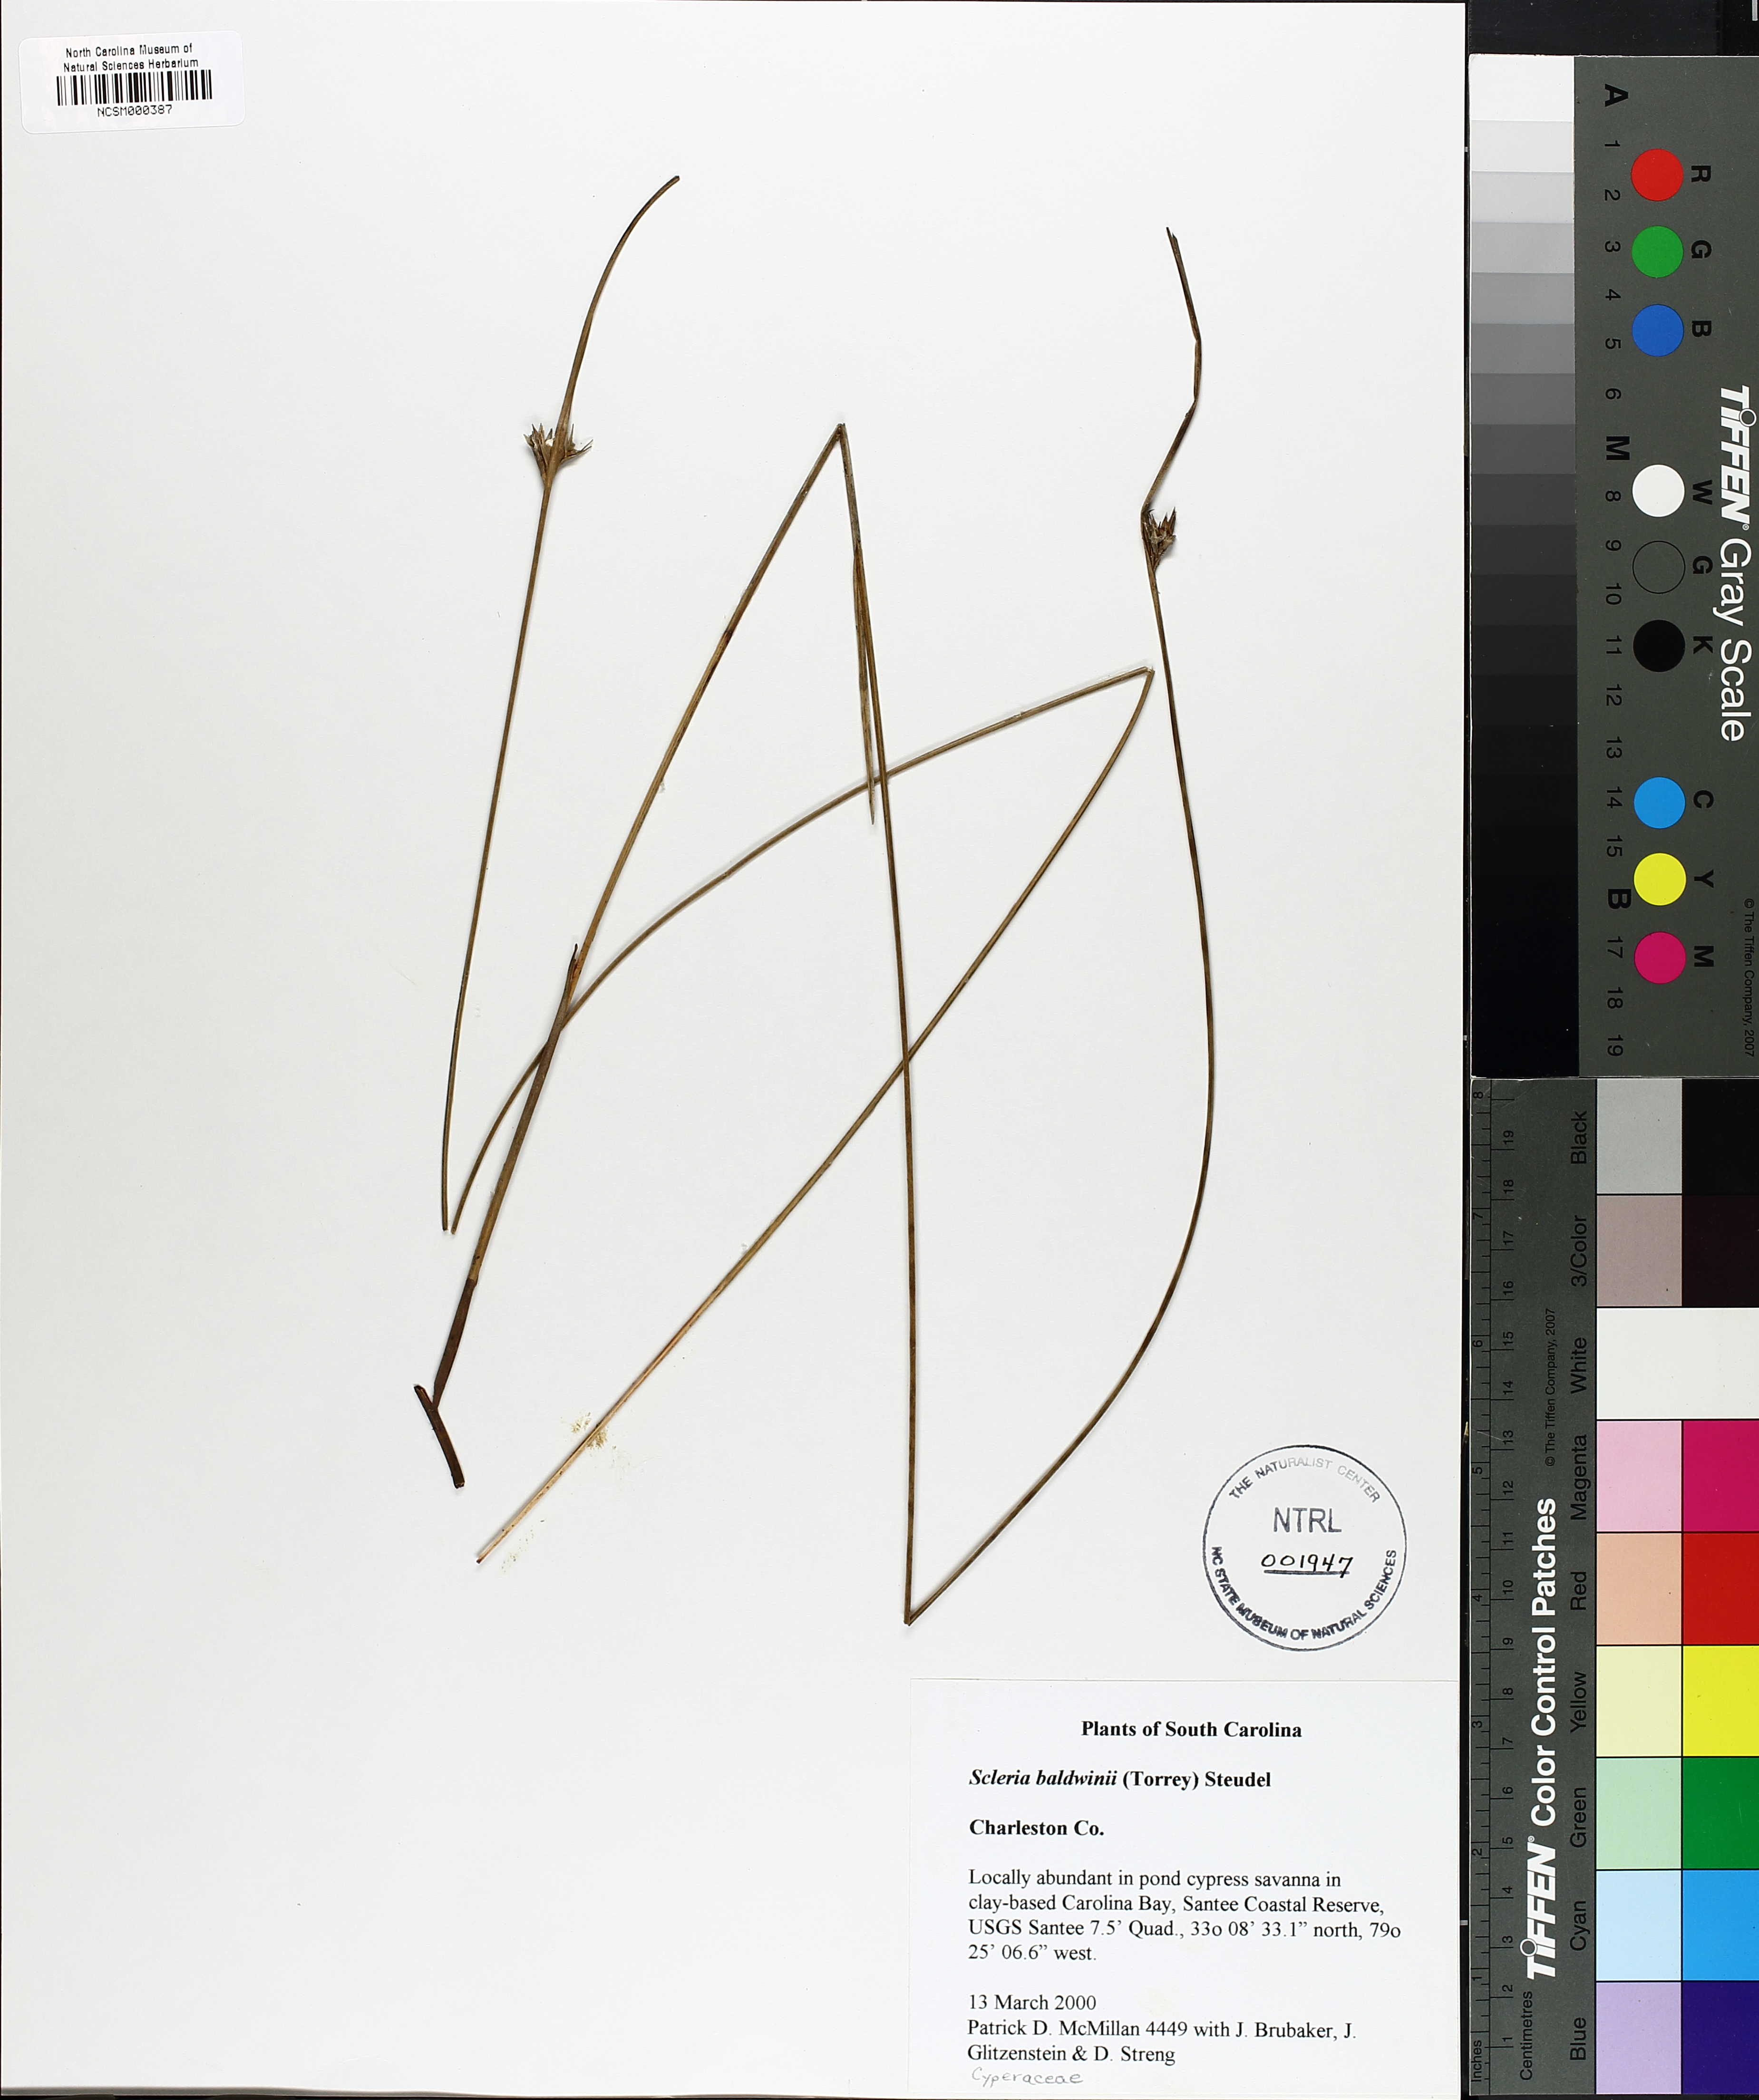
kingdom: Plantae
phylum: Tracheophyta
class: Liliopsida
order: Poales
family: Cyperaceae
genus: Scleria
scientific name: Scleria baldwinii
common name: Baldwin's nutrush
